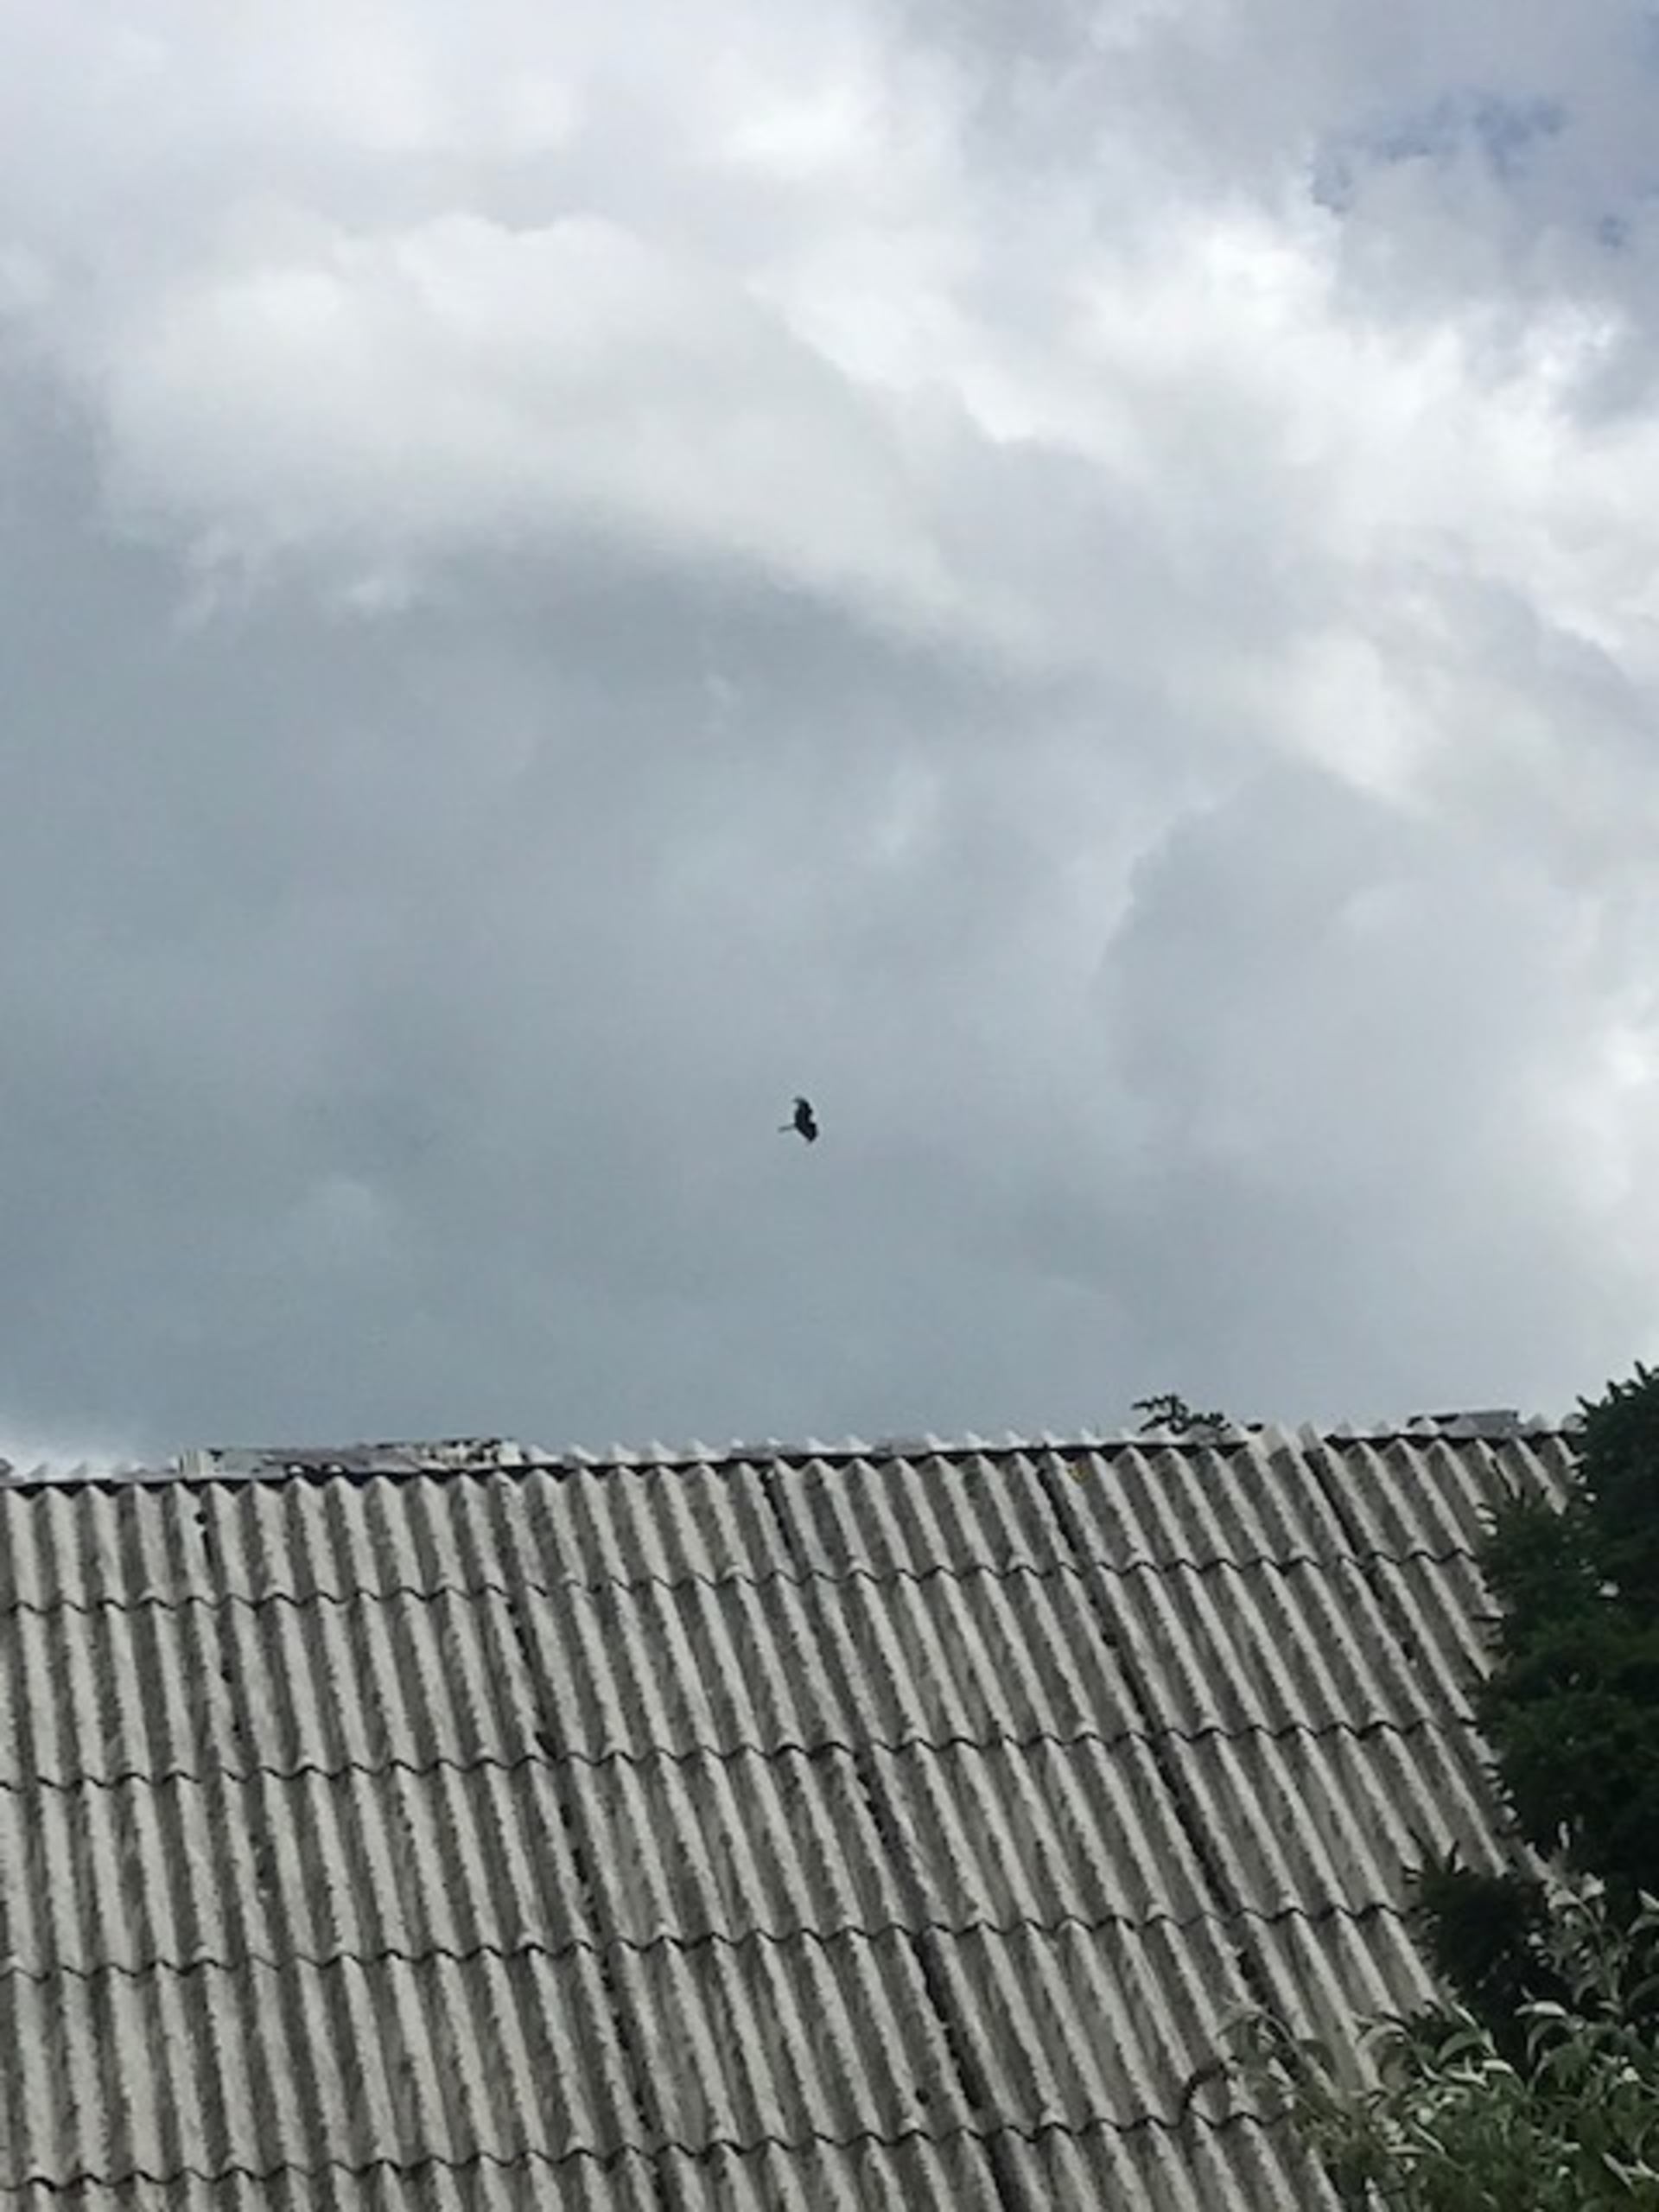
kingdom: Animalia
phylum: Chordata
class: Aves
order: Accipitriformes
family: Accipitridae
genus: Milvus
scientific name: Milvus milvus
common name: Rød glente
